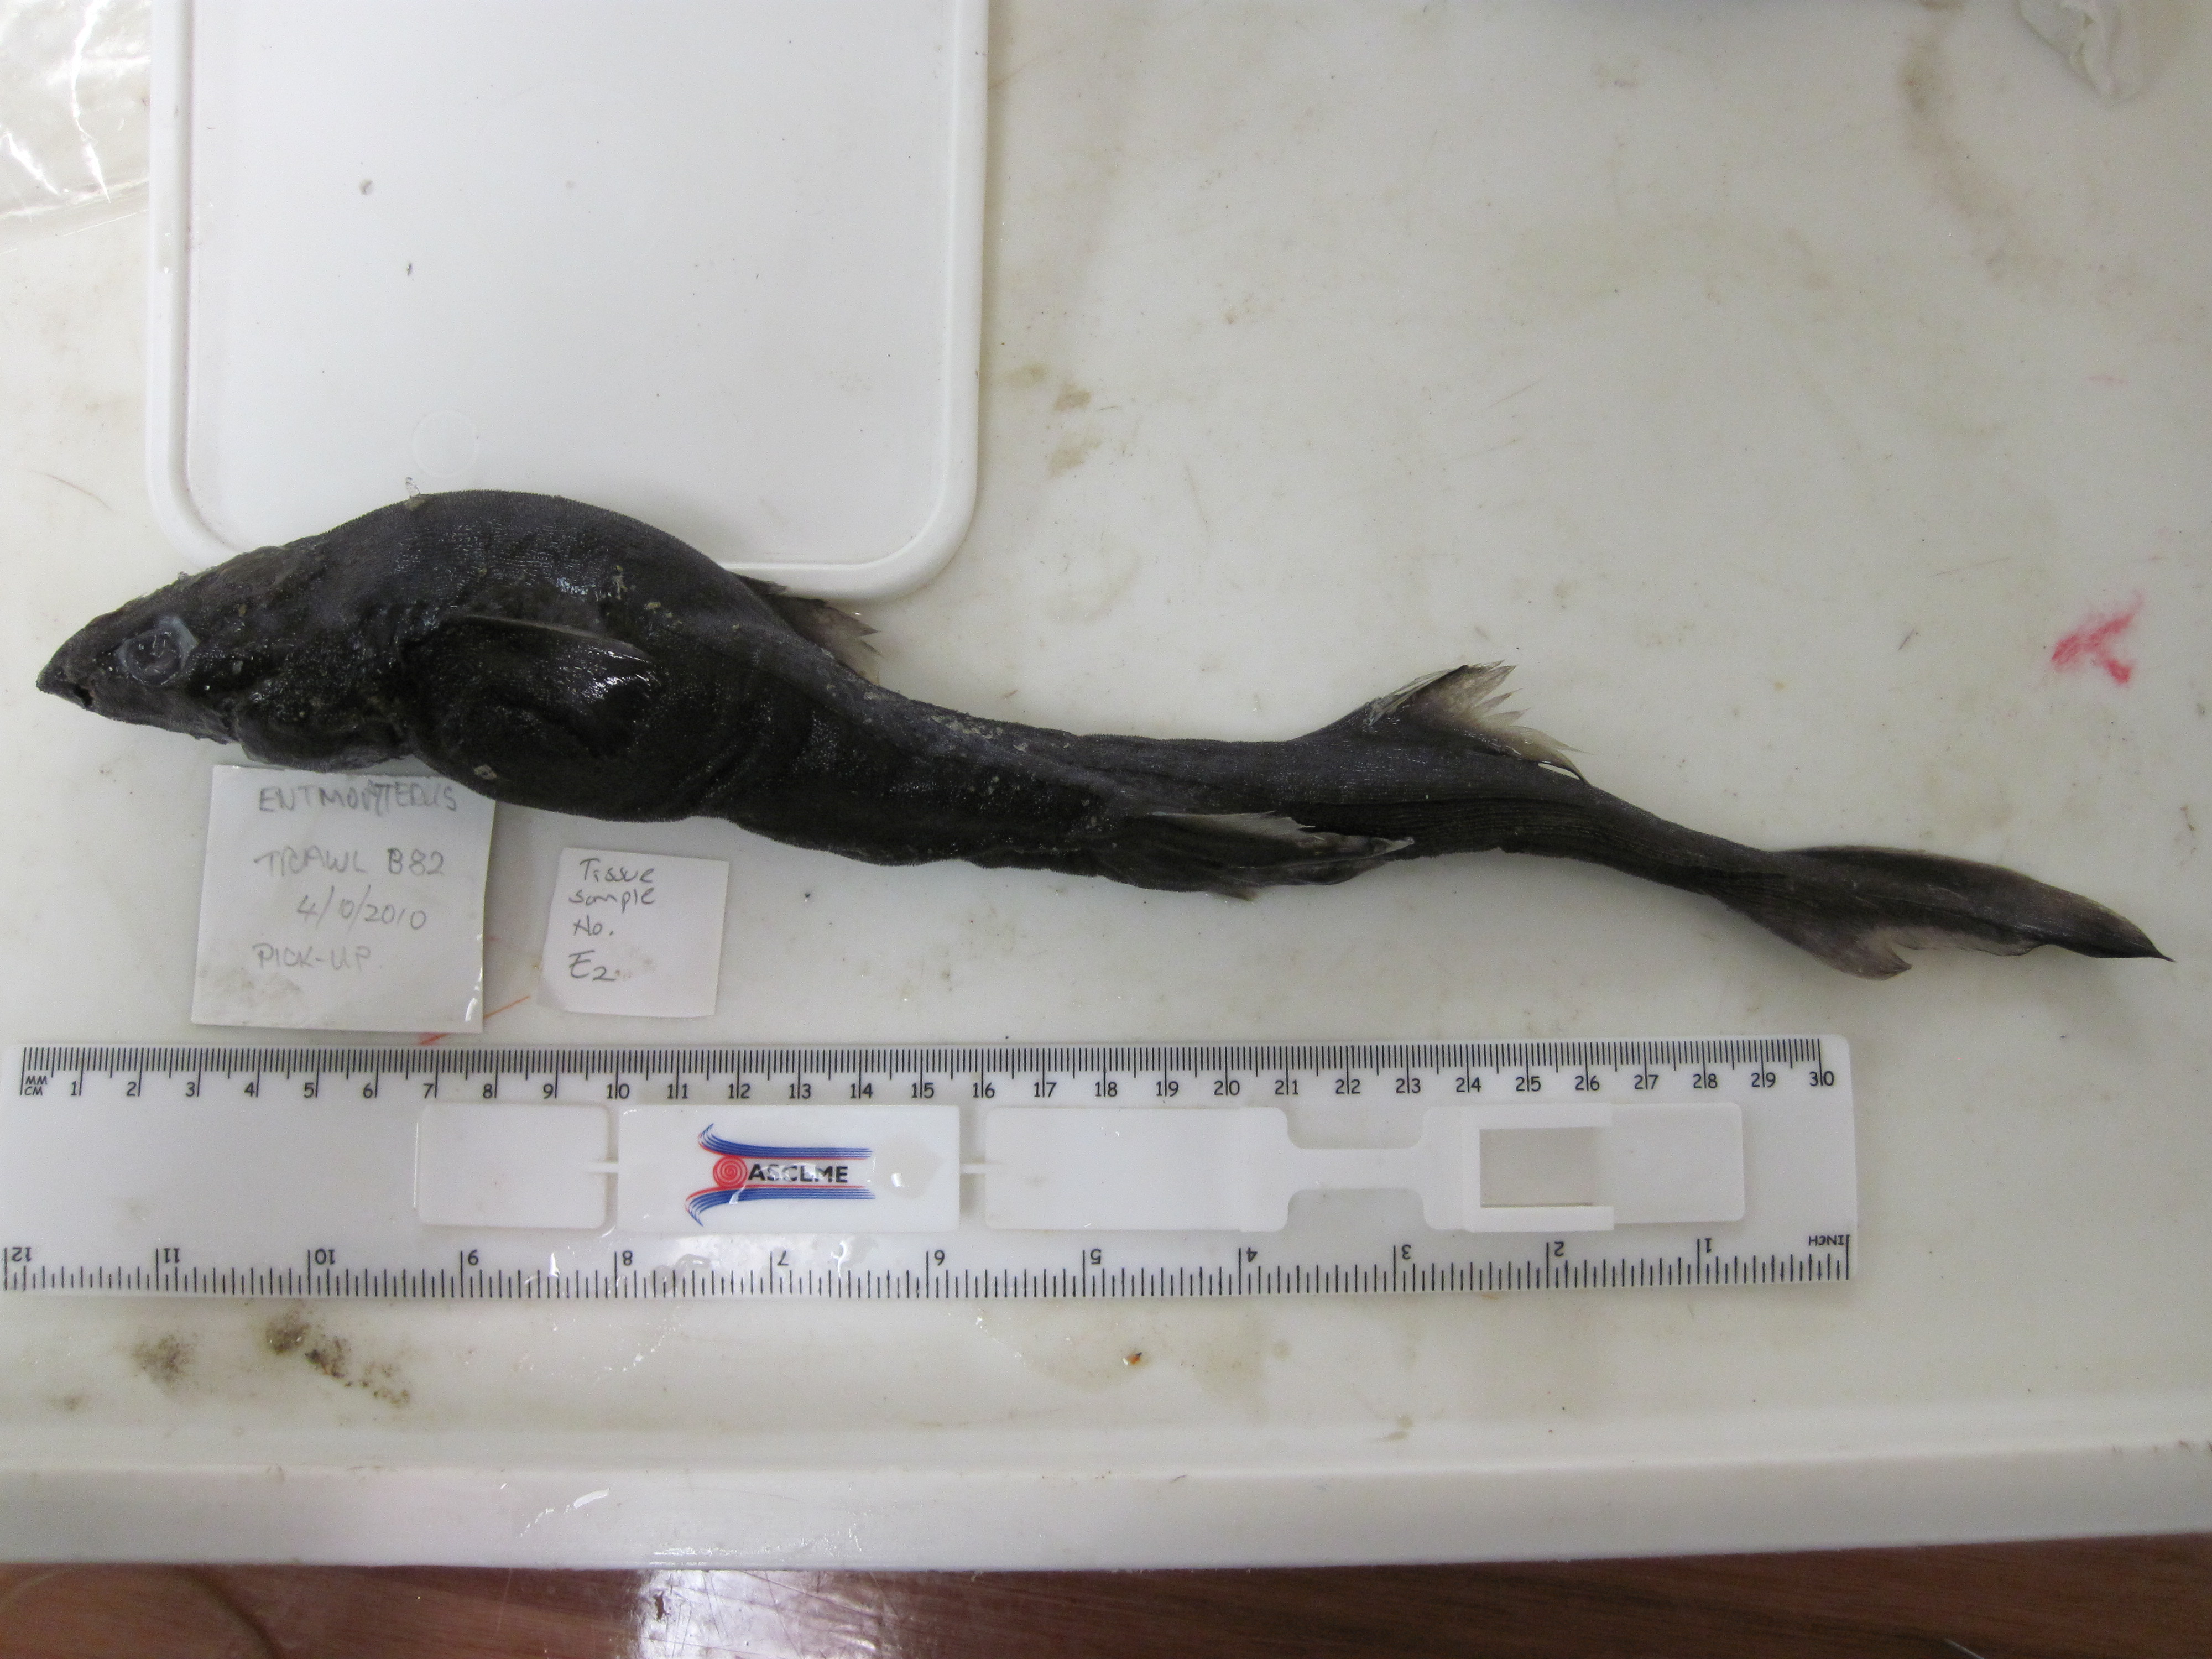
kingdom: Animalia
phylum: Chordata
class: Elasmobranchii
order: Squaliformes
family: Etmopteridae
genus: Etmopterus
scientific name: Etmopterus granulosus
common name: Southern lanternshark
